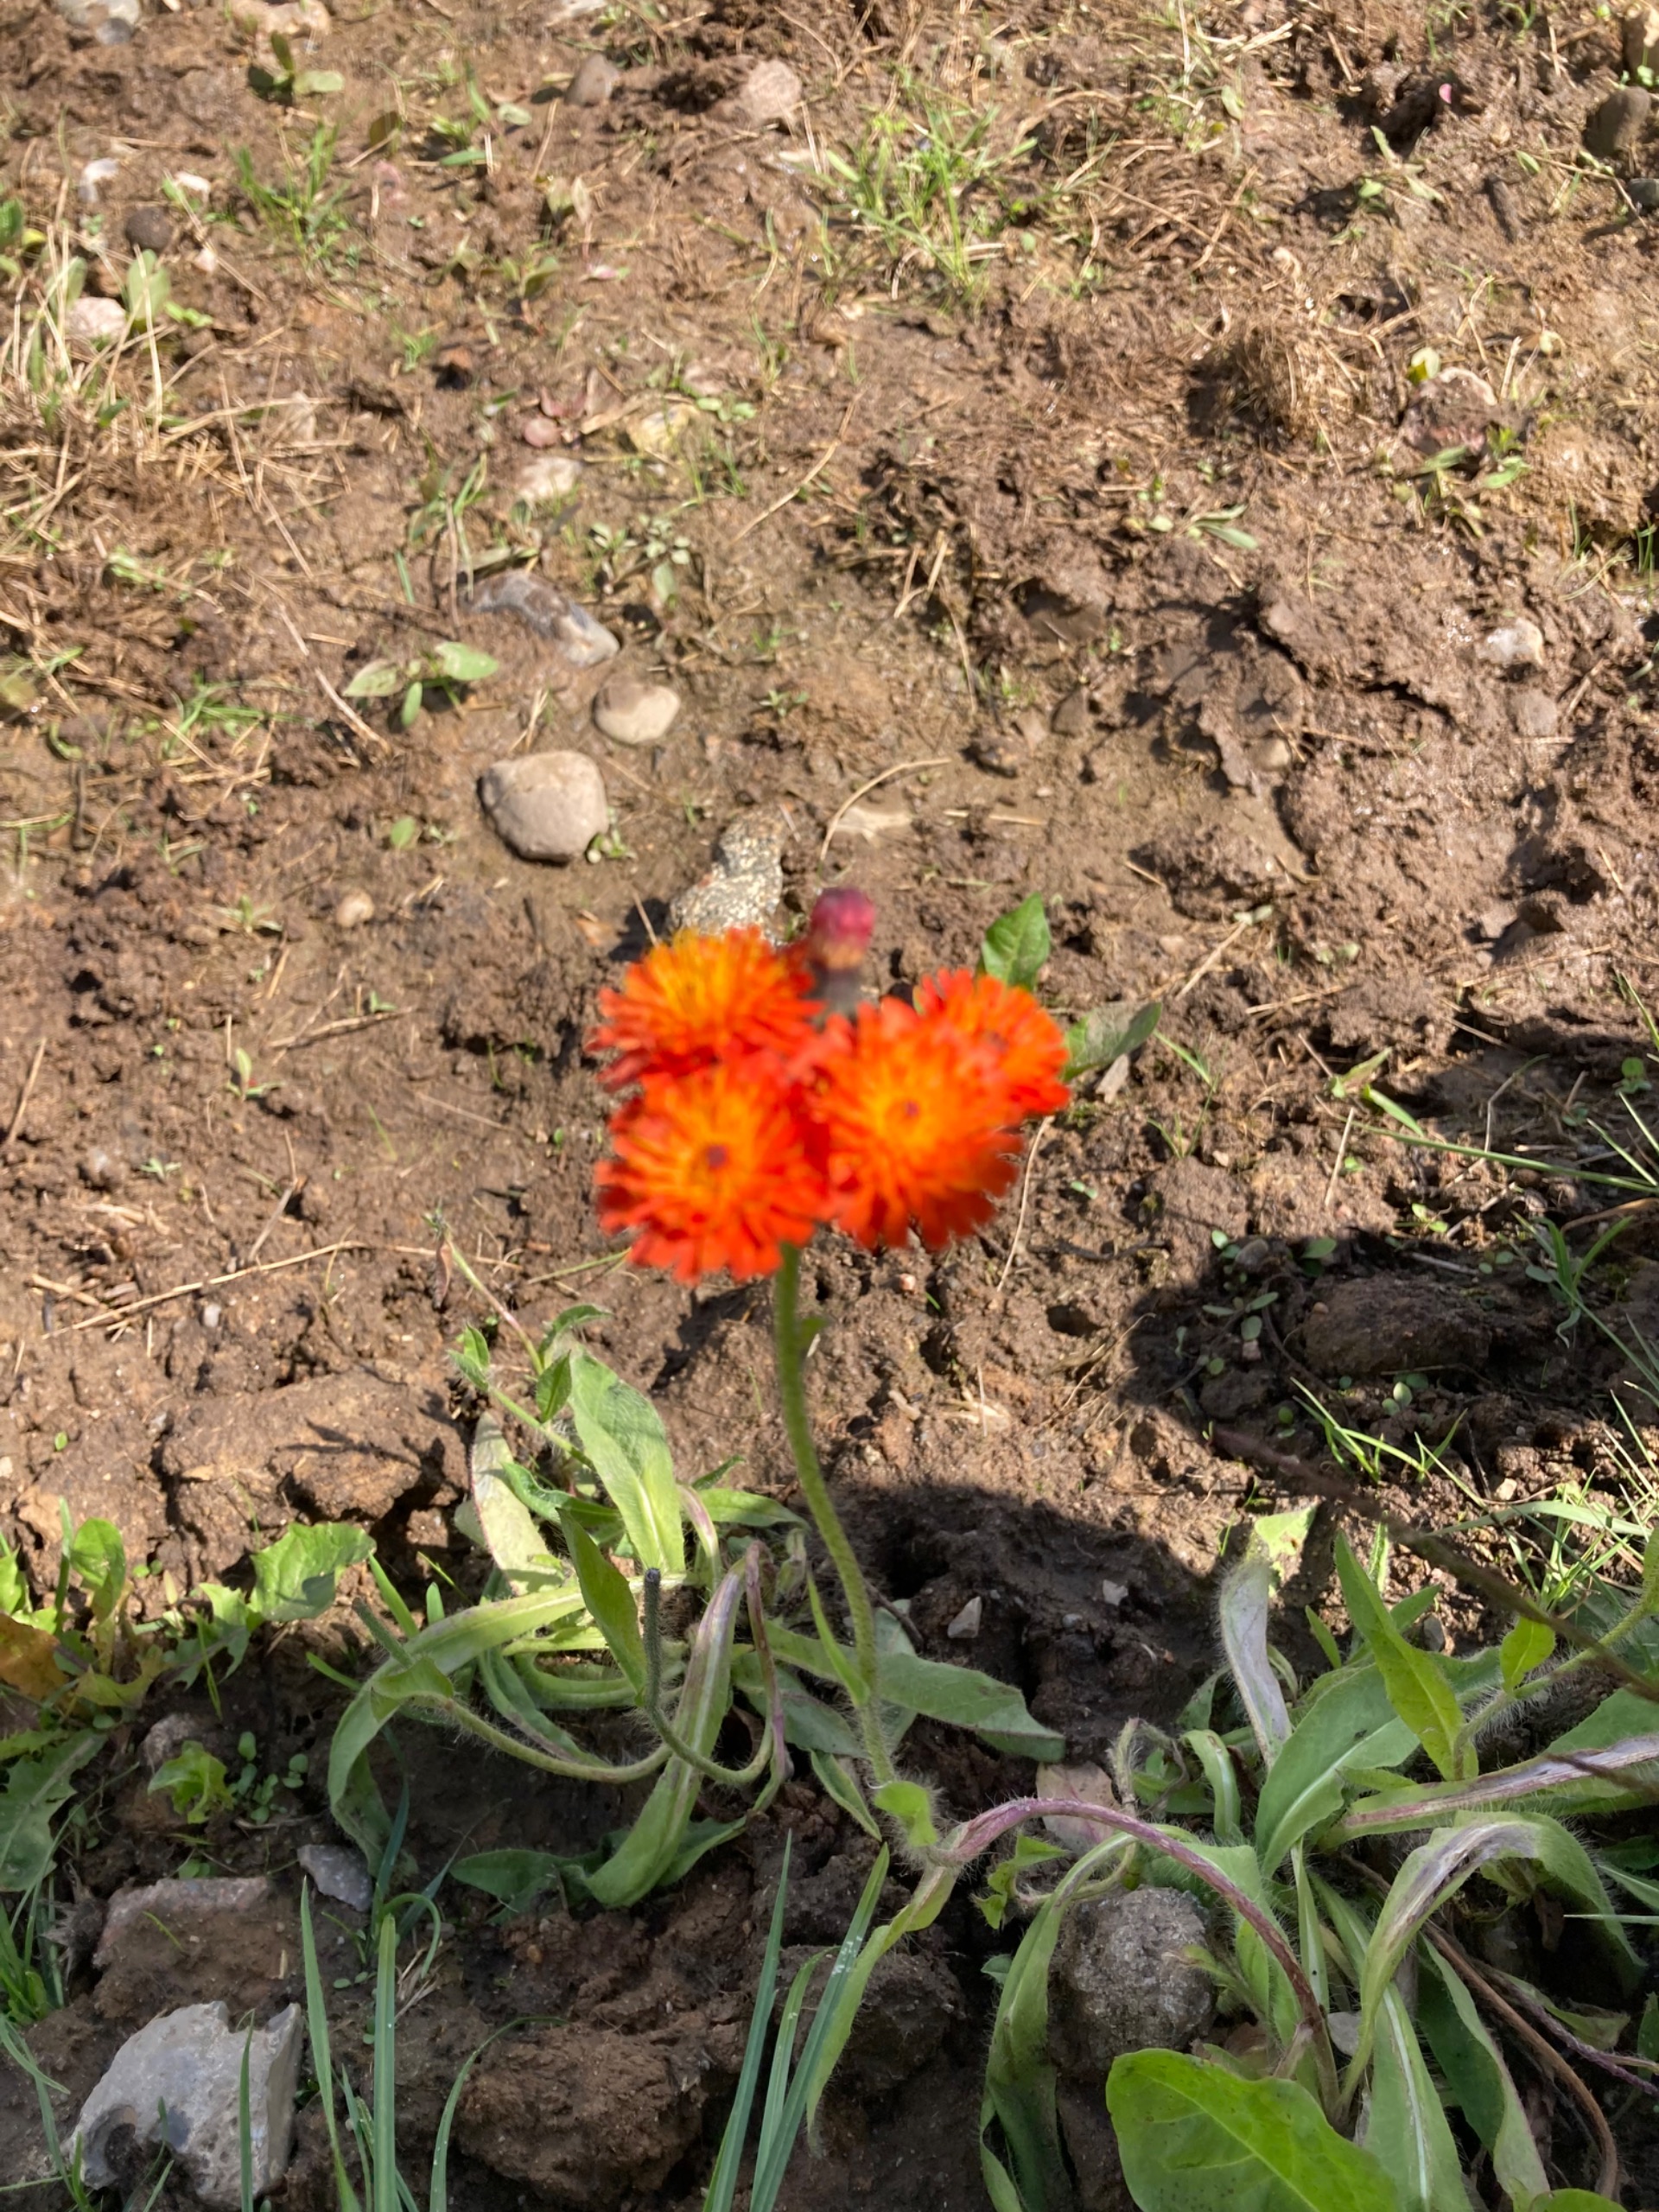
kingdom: Plantae
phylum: Tracheophyta
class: Magnoliopsida
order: Asterales
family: Asteraceae
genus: Pilosella
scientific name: Pilosella aurantiaca
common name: Pomerans-høgeurt
